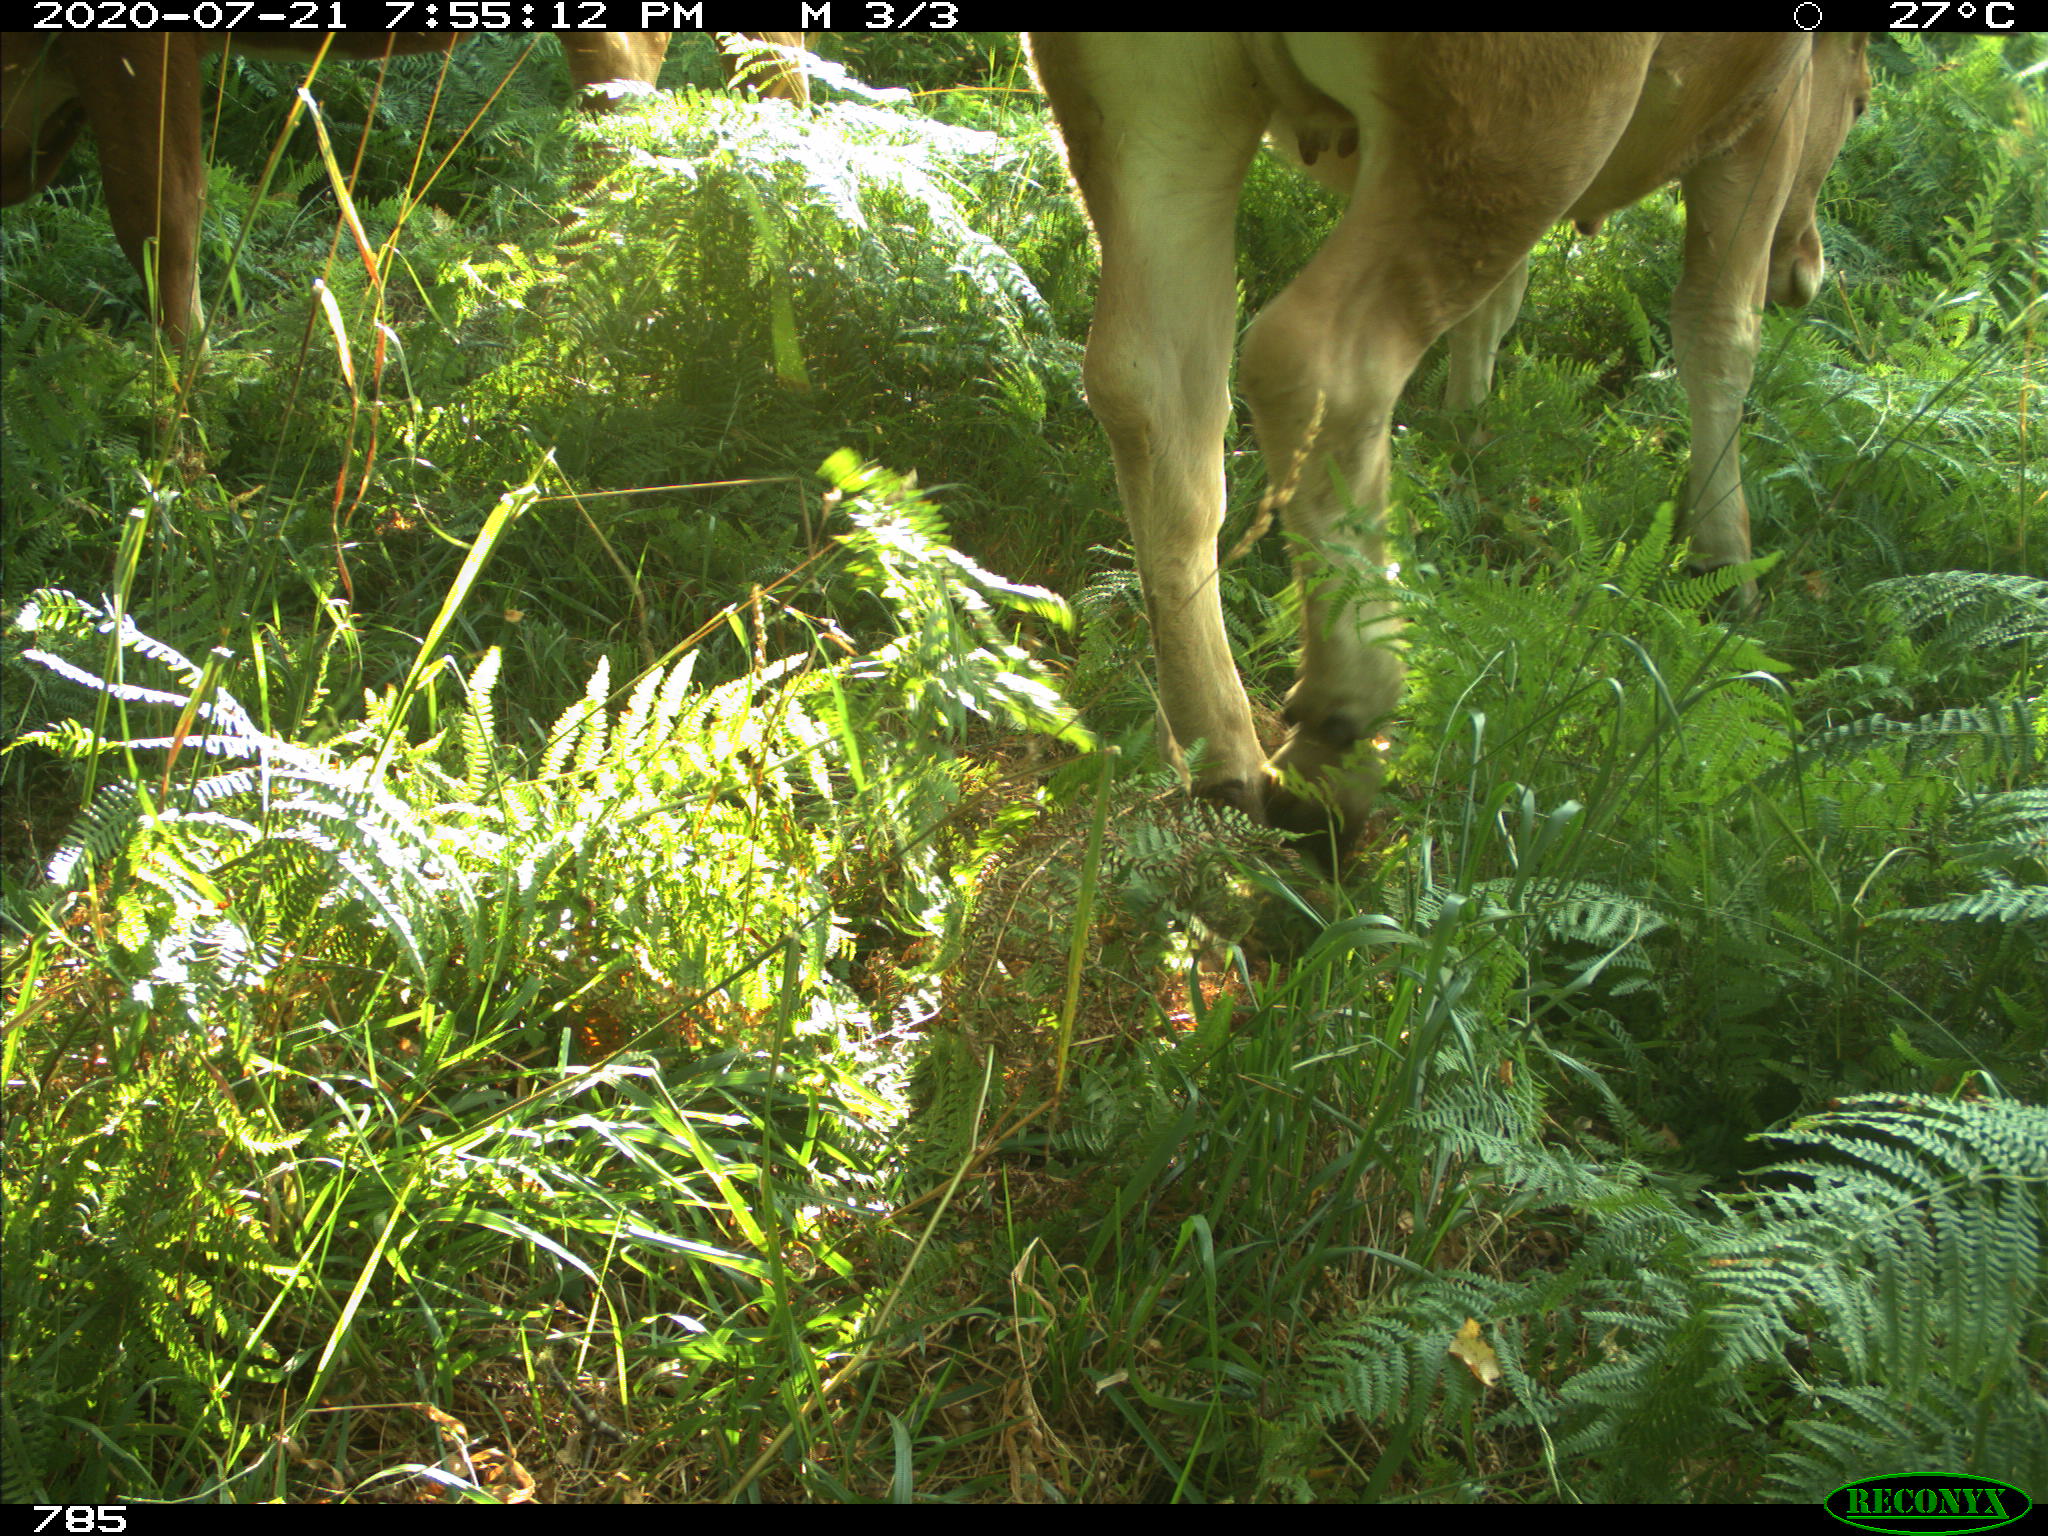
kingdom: Animalia
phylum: Chordata
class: Mammalia
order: Artiodactyla
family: Bovidae
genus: Bos
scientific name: Bos taurus
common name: Domesticated cattle
